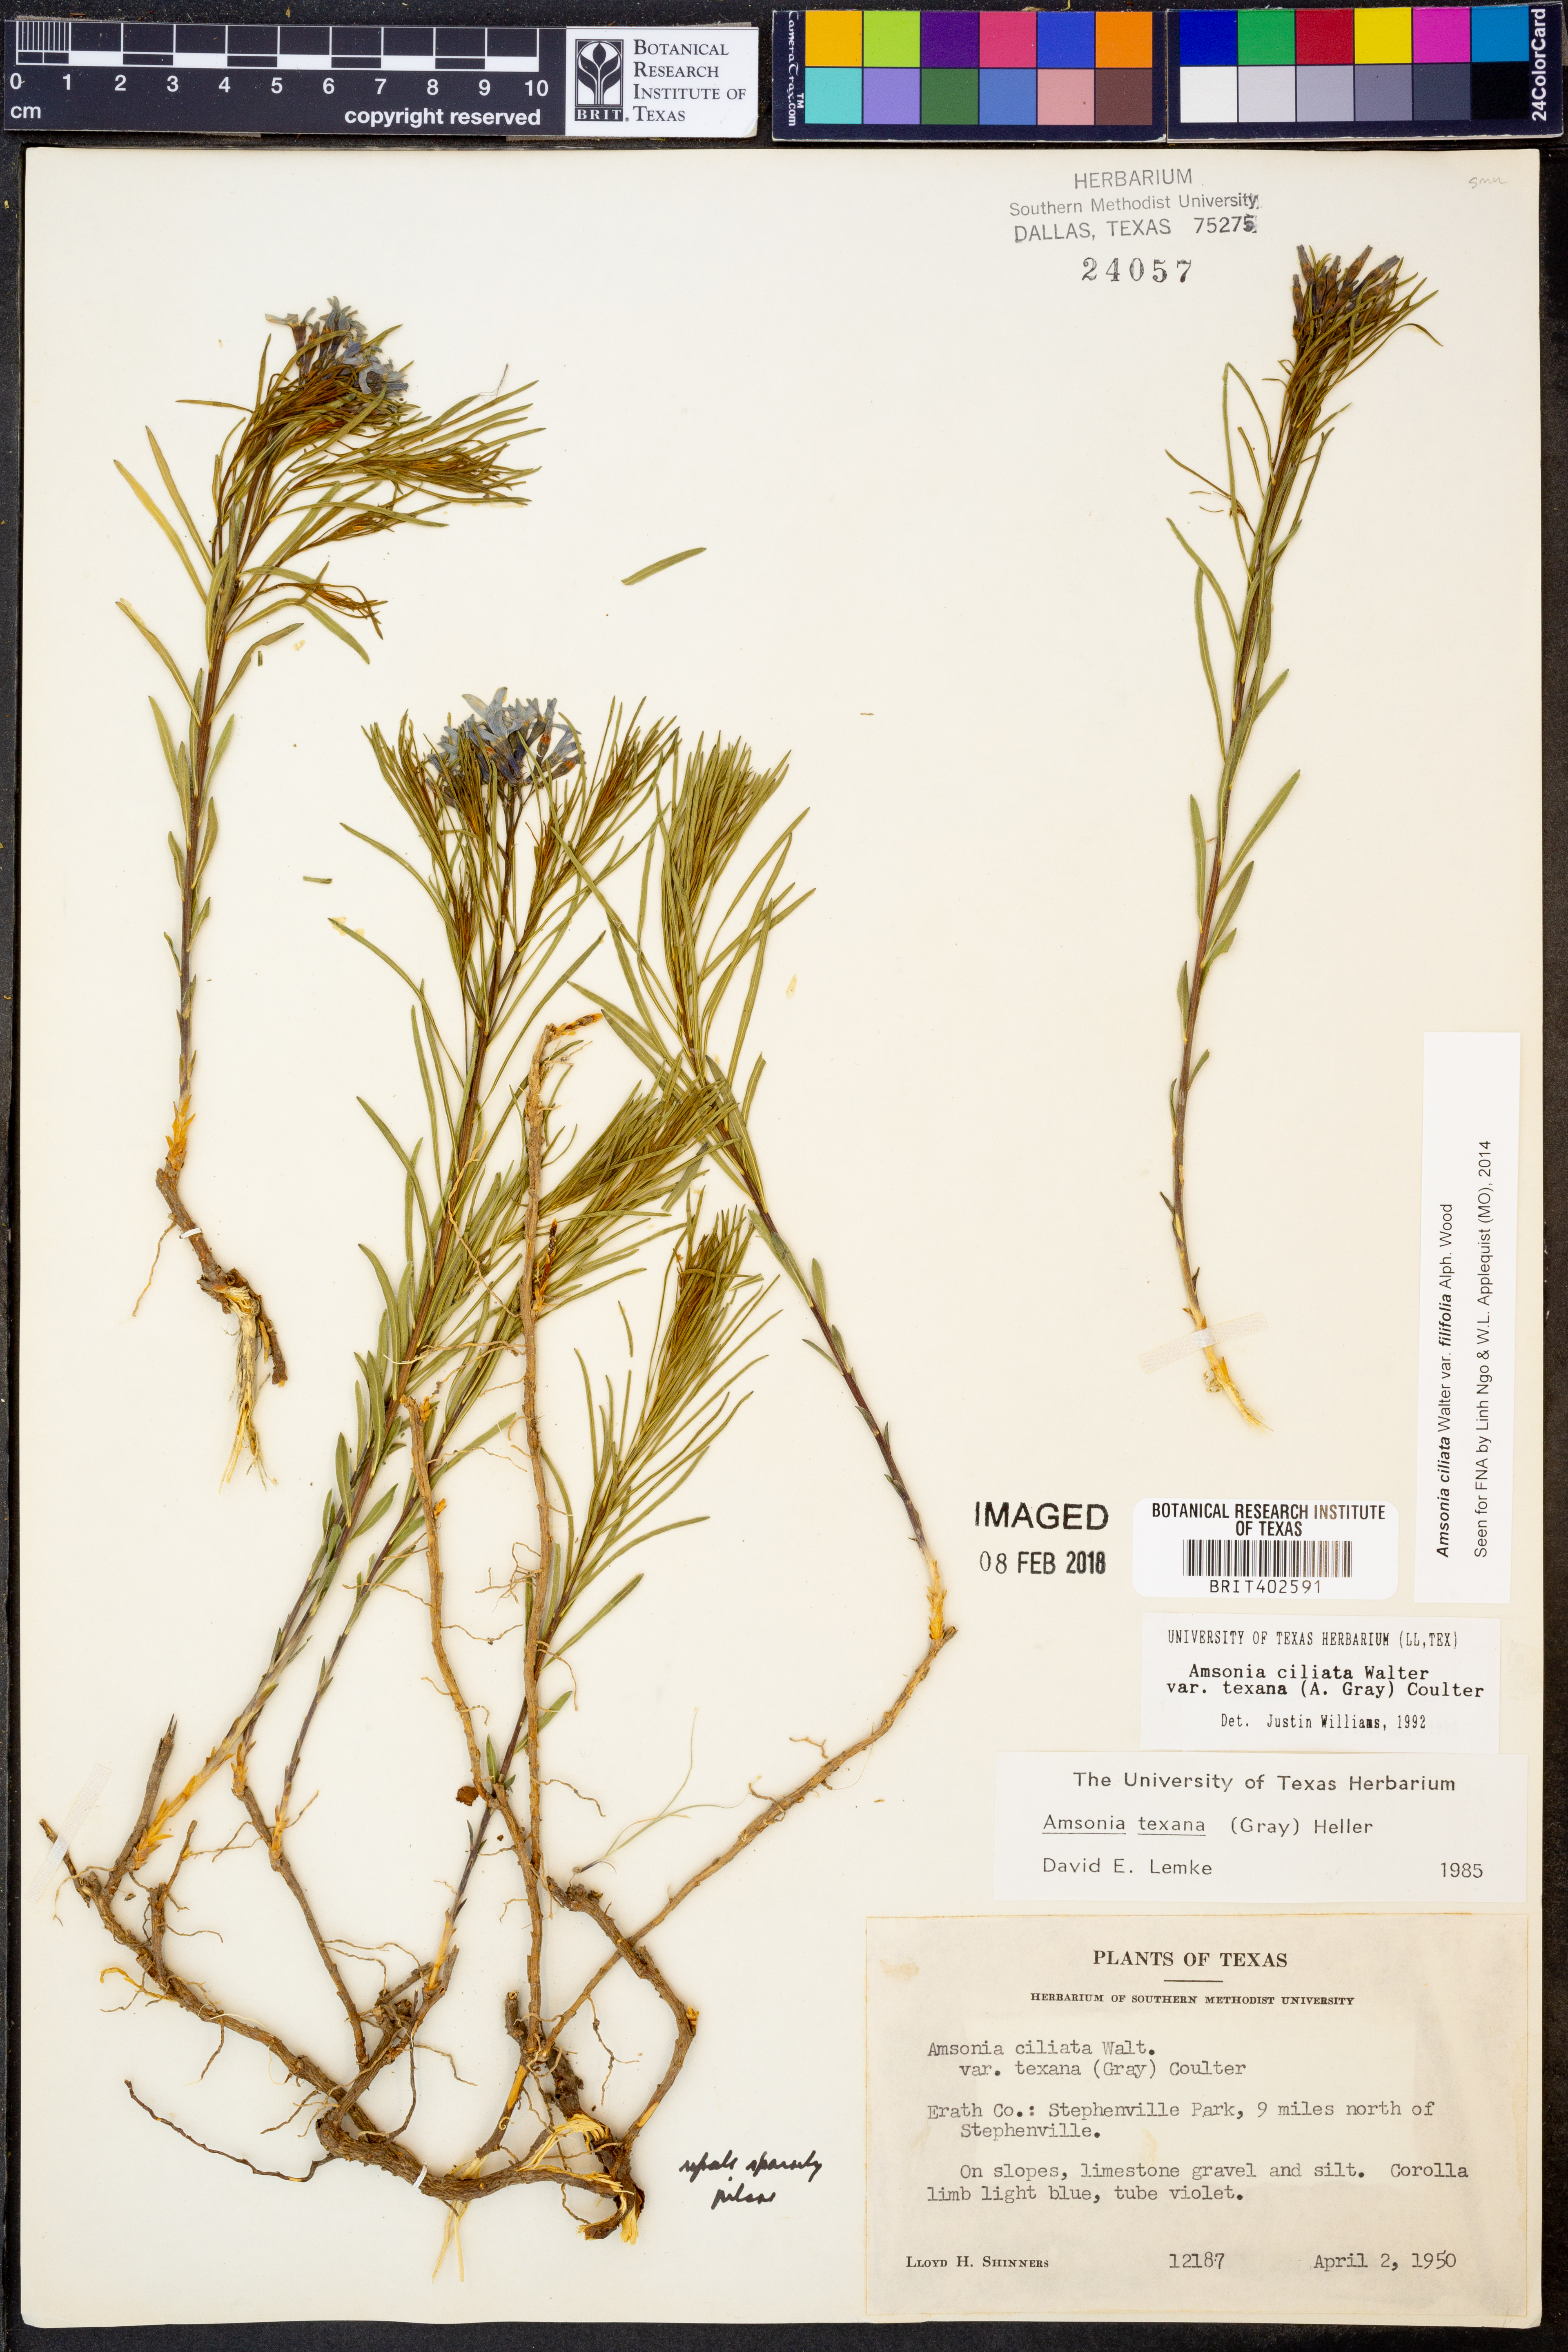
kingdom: Plantae
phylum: Tracheophyta
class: Magnoliopsida
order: Gentianales
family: Apocynaceae
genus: Amsonia
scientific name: Amsonia ciliata
